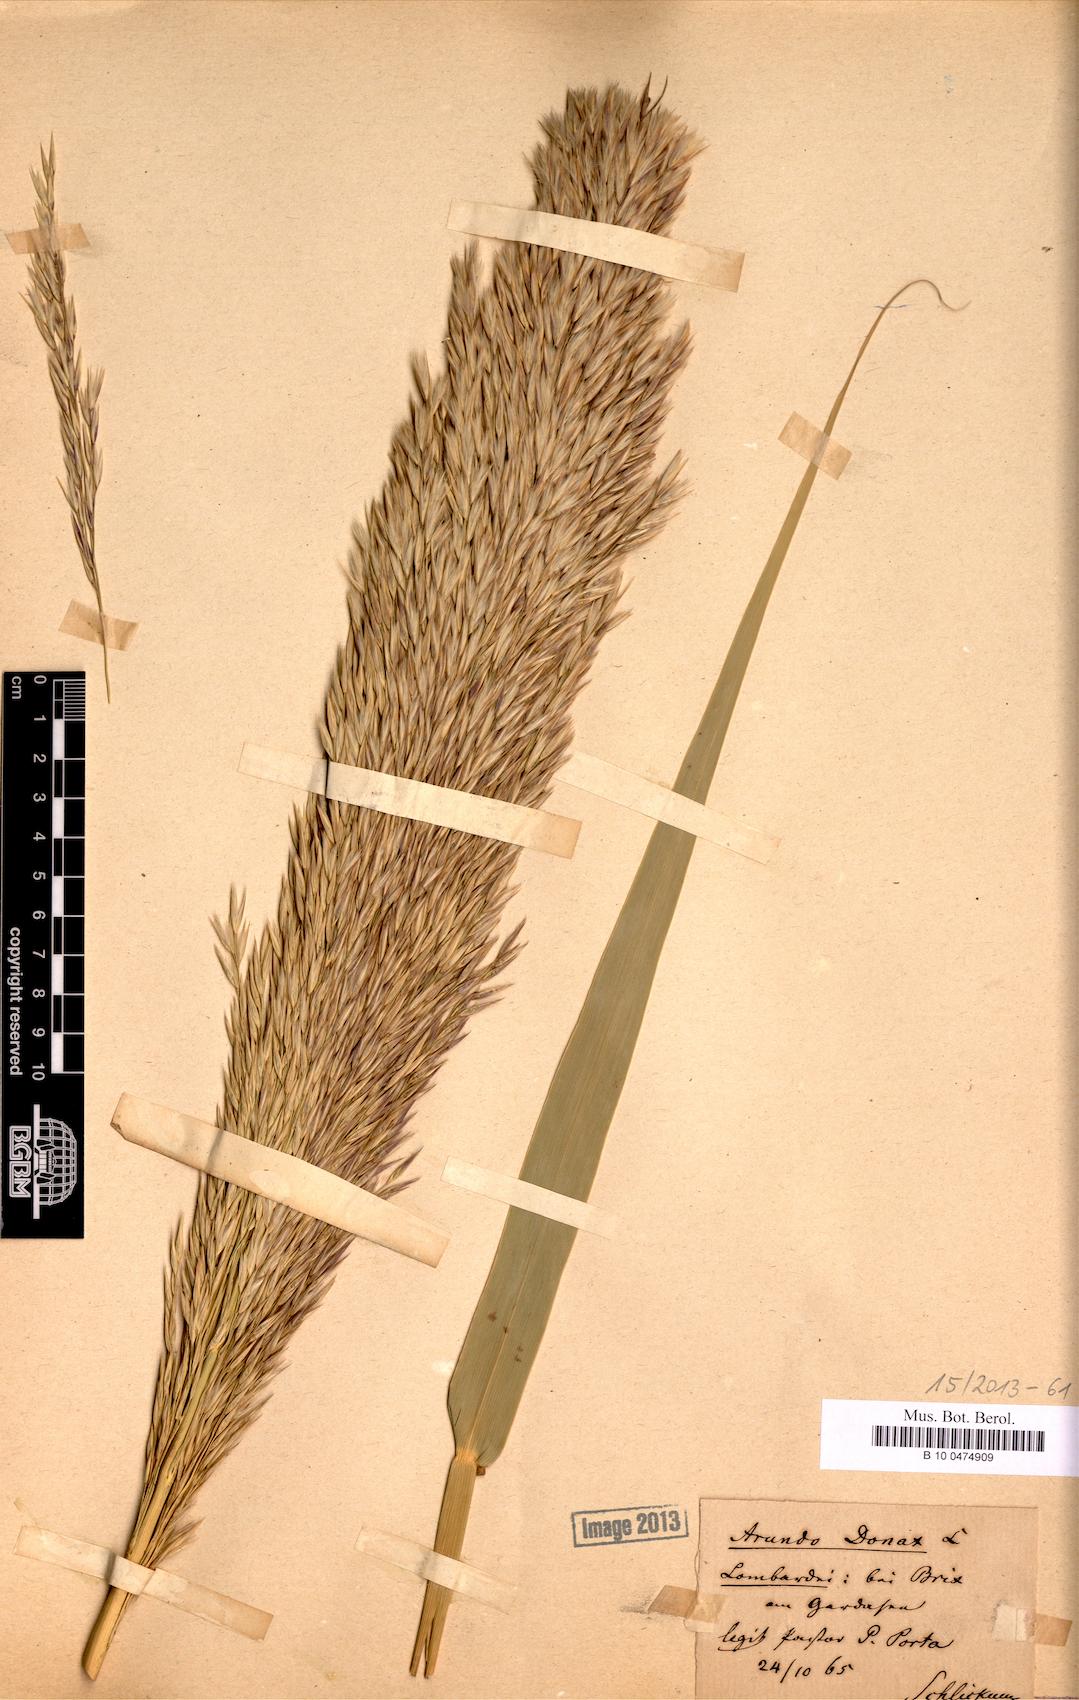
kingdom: Plantae
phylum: Tracheophyta
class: Liliopsida
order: Poales
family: Poaceae
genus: Arundo
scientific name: Arundo donax
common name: Giant reed
